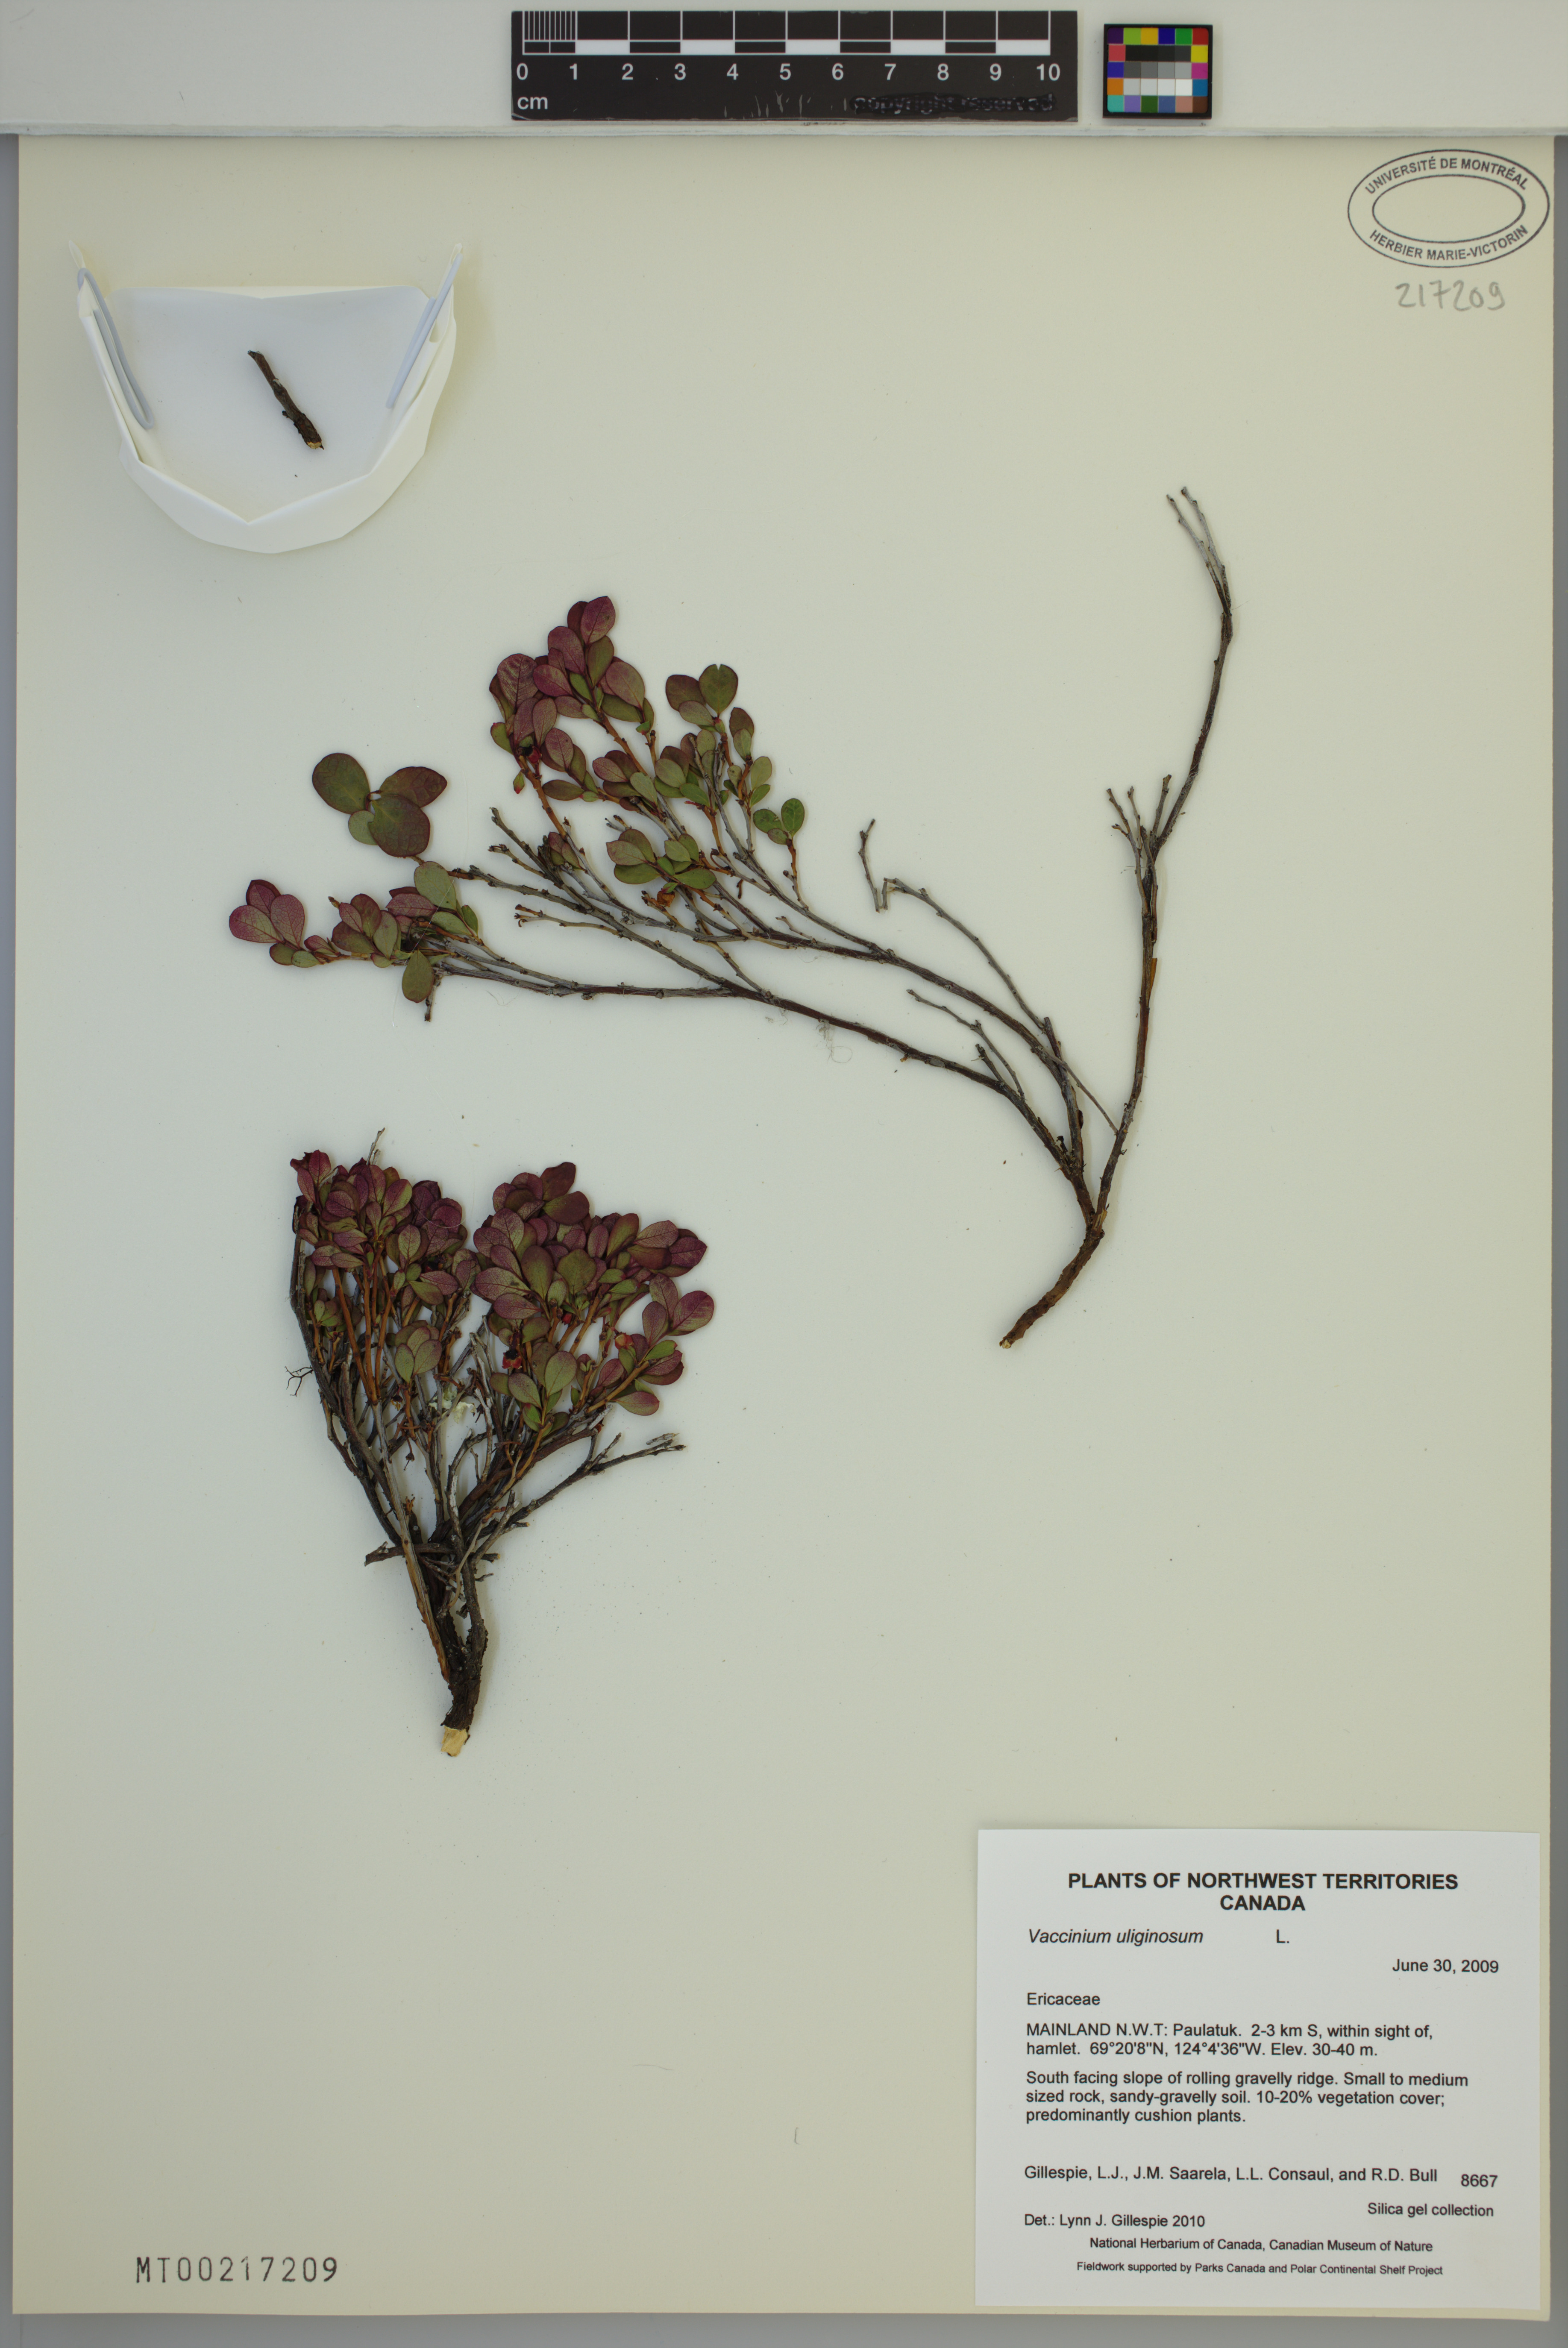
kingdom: Plantae
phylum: Tracheophyta
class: Magnoliopsida
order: Ericales
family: Ericaceae
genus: Vaccinium
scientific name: Vaccinium uliginosum
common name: Bog bilberry
